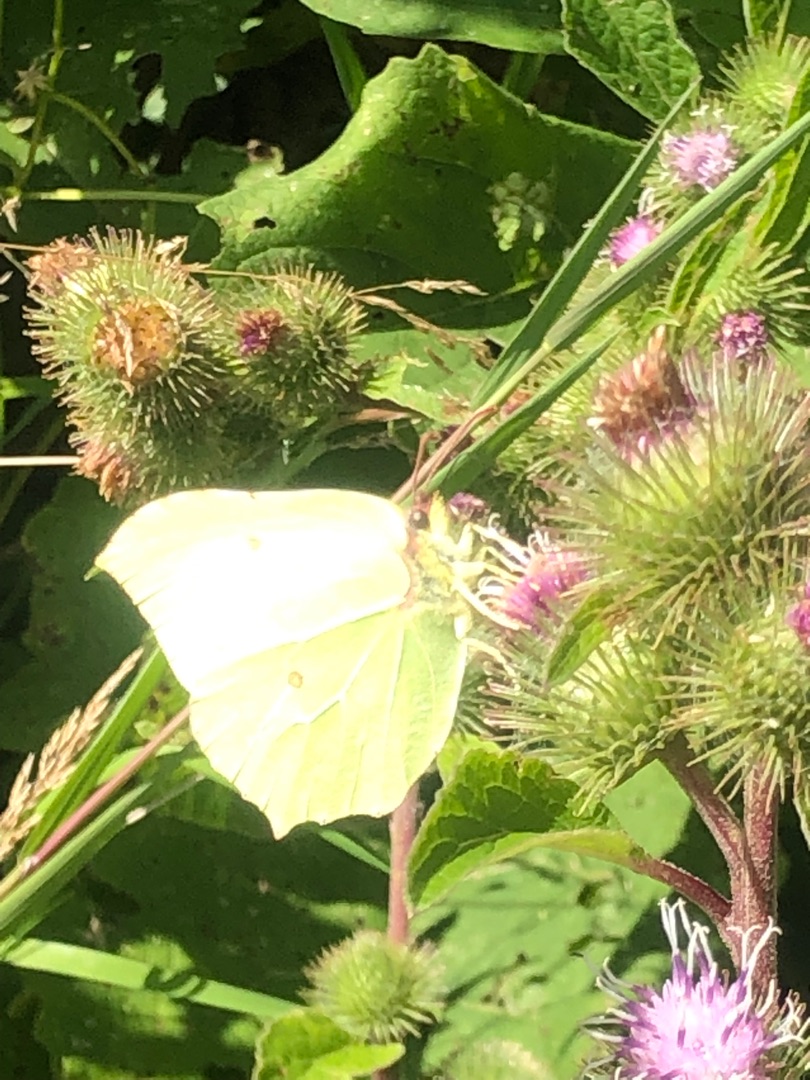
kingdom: Animalia
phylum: Arthropoda
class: Insecta
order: Lepidoptera
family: Pieridae
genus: Gonepteryx
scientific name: Gonepteryx rhamni
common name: Citronsommerfugl
